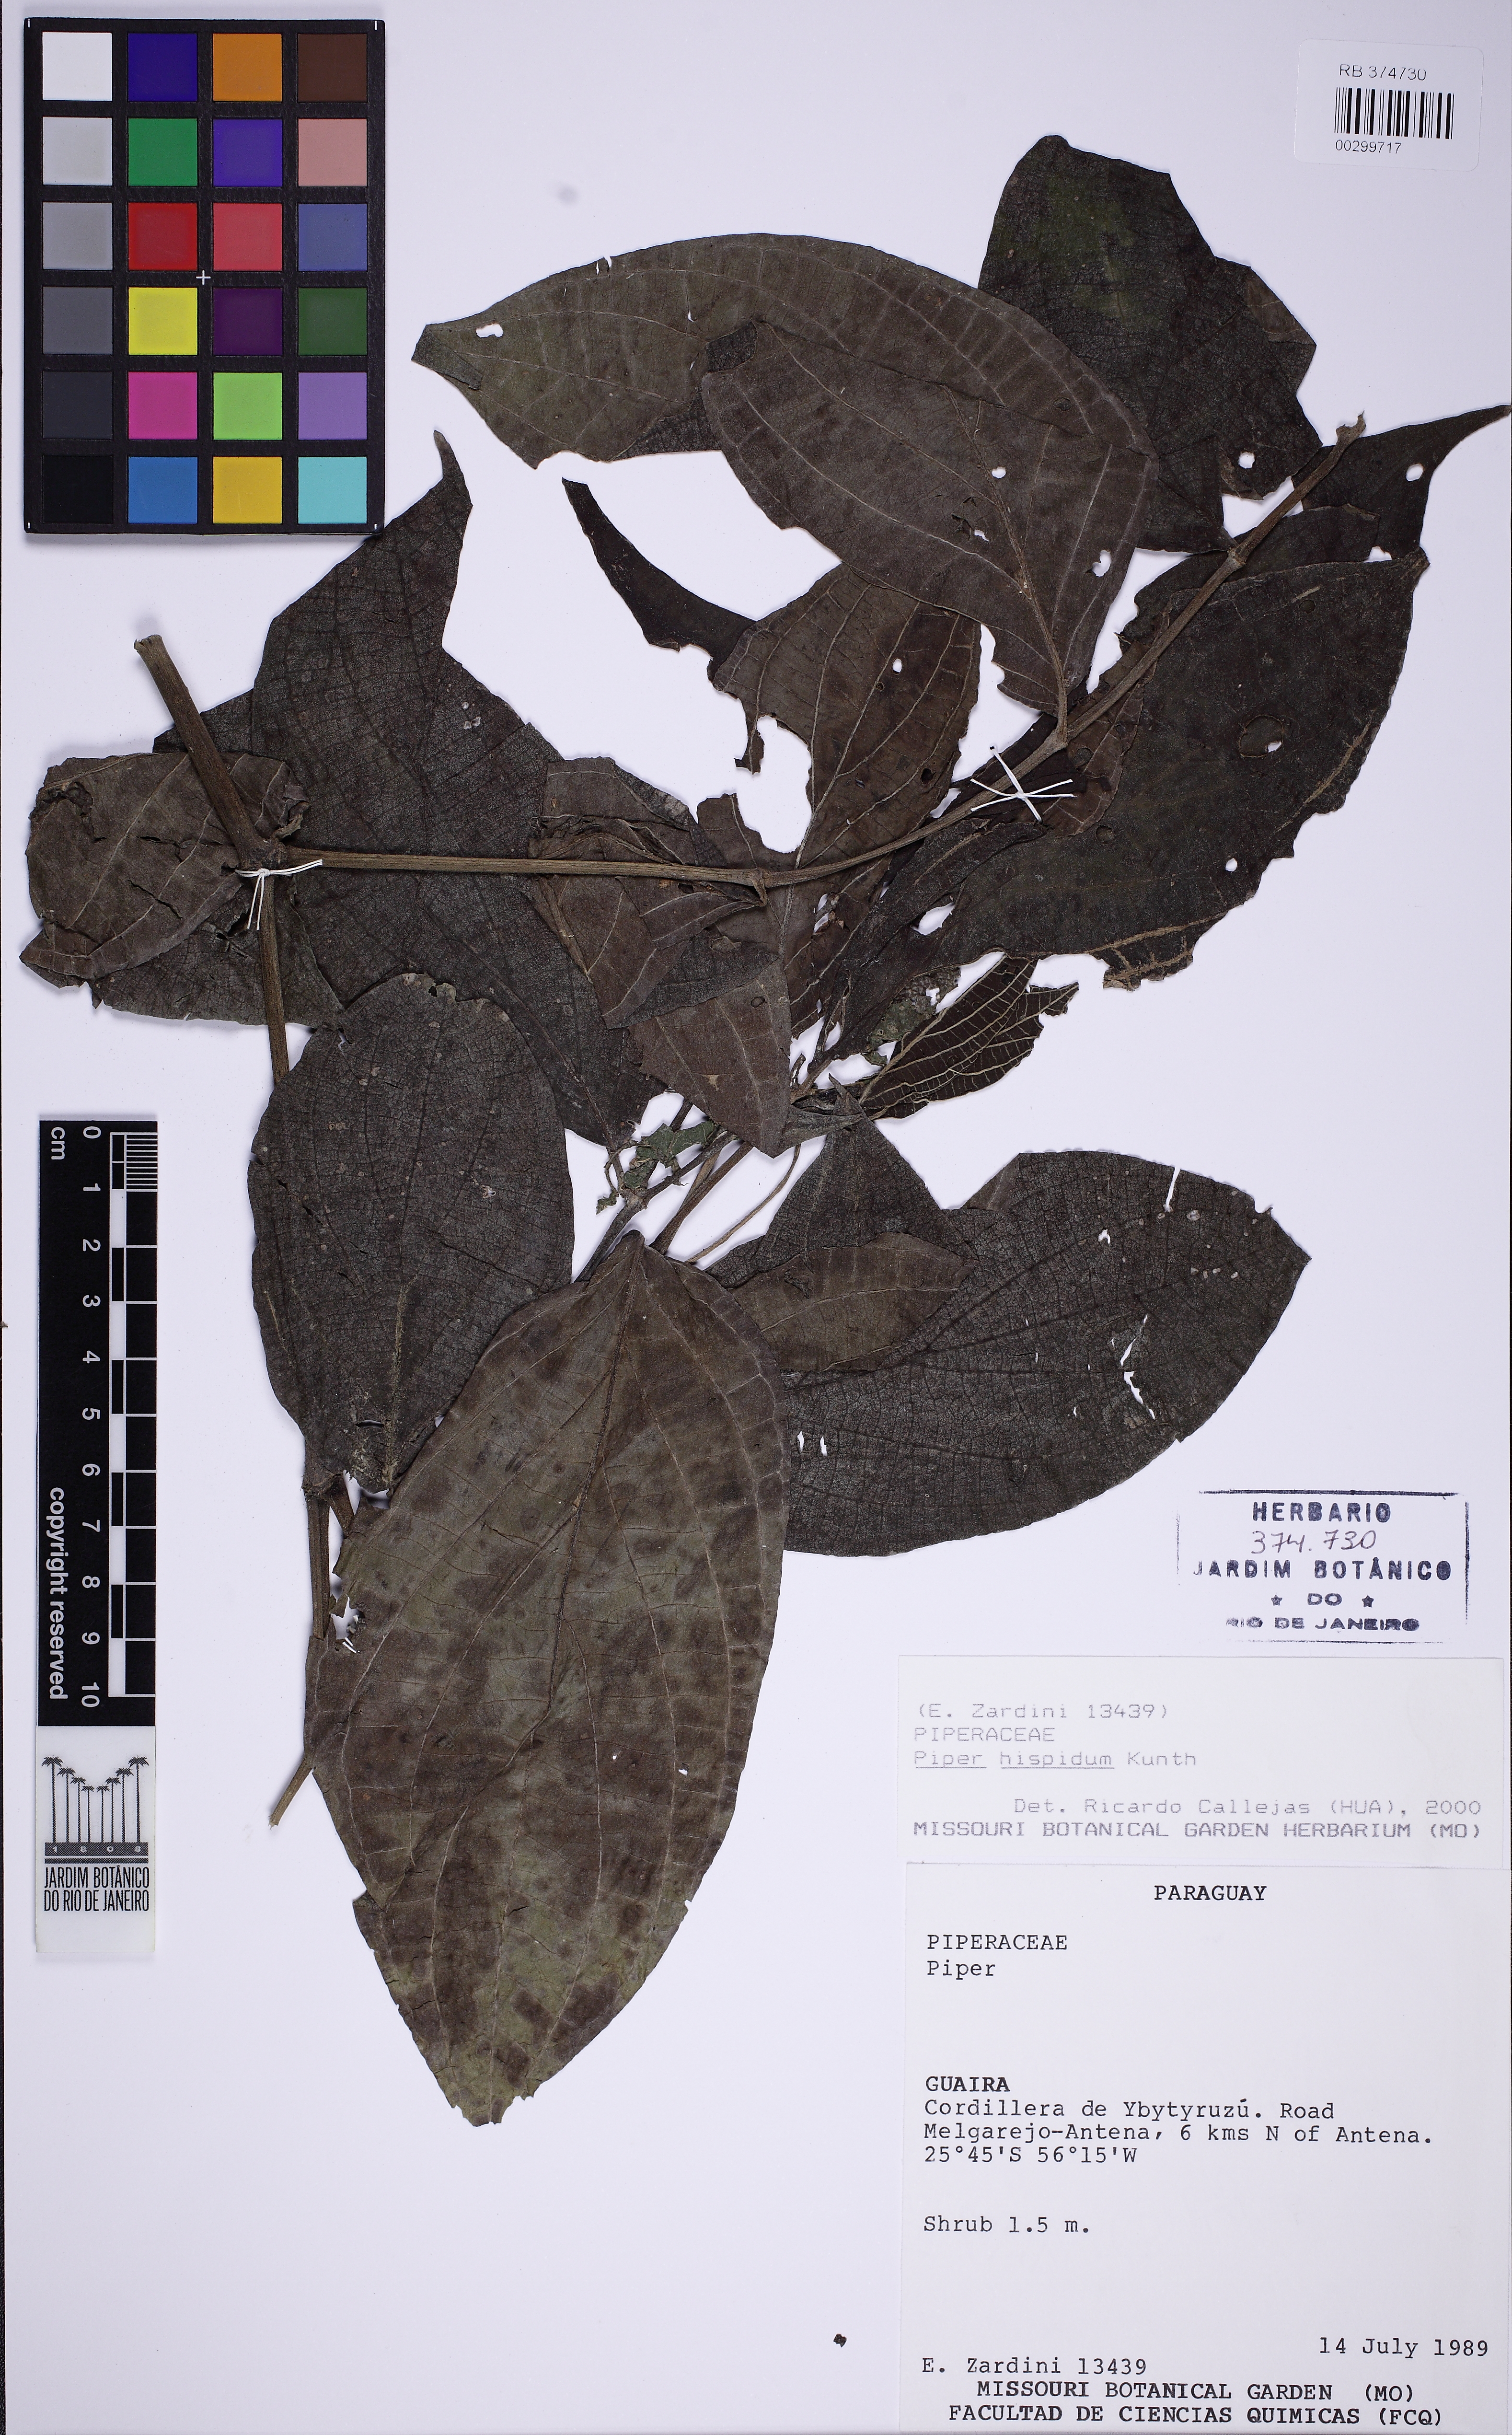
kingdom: Plantae
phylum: Tracheophyta
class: Magnoliopsida
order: Piperales
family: Piperaceae
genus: Piper
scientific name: Piper hispidum
